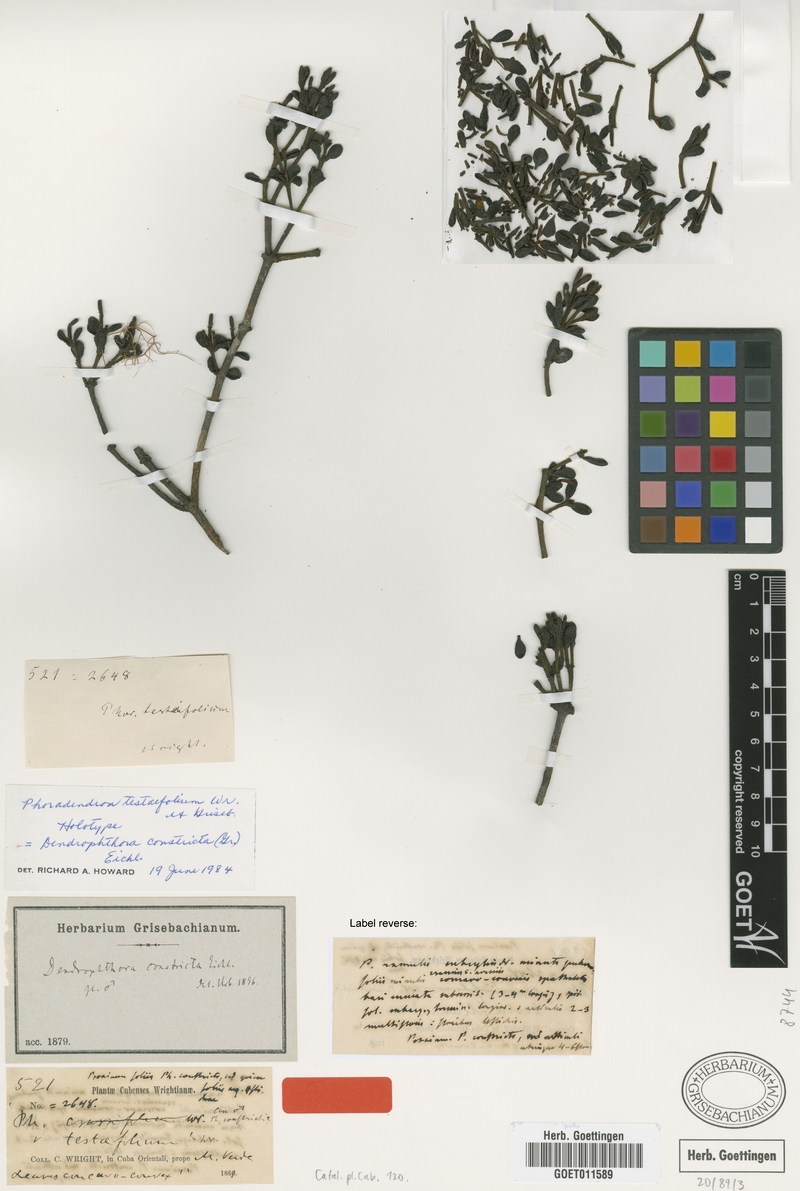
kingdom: Plantae
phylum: Tracheophyta
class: Magnoliopsida
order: Santalales
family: Viscaceae
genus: Dendrophthora
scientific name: Dendrophthora constricta
